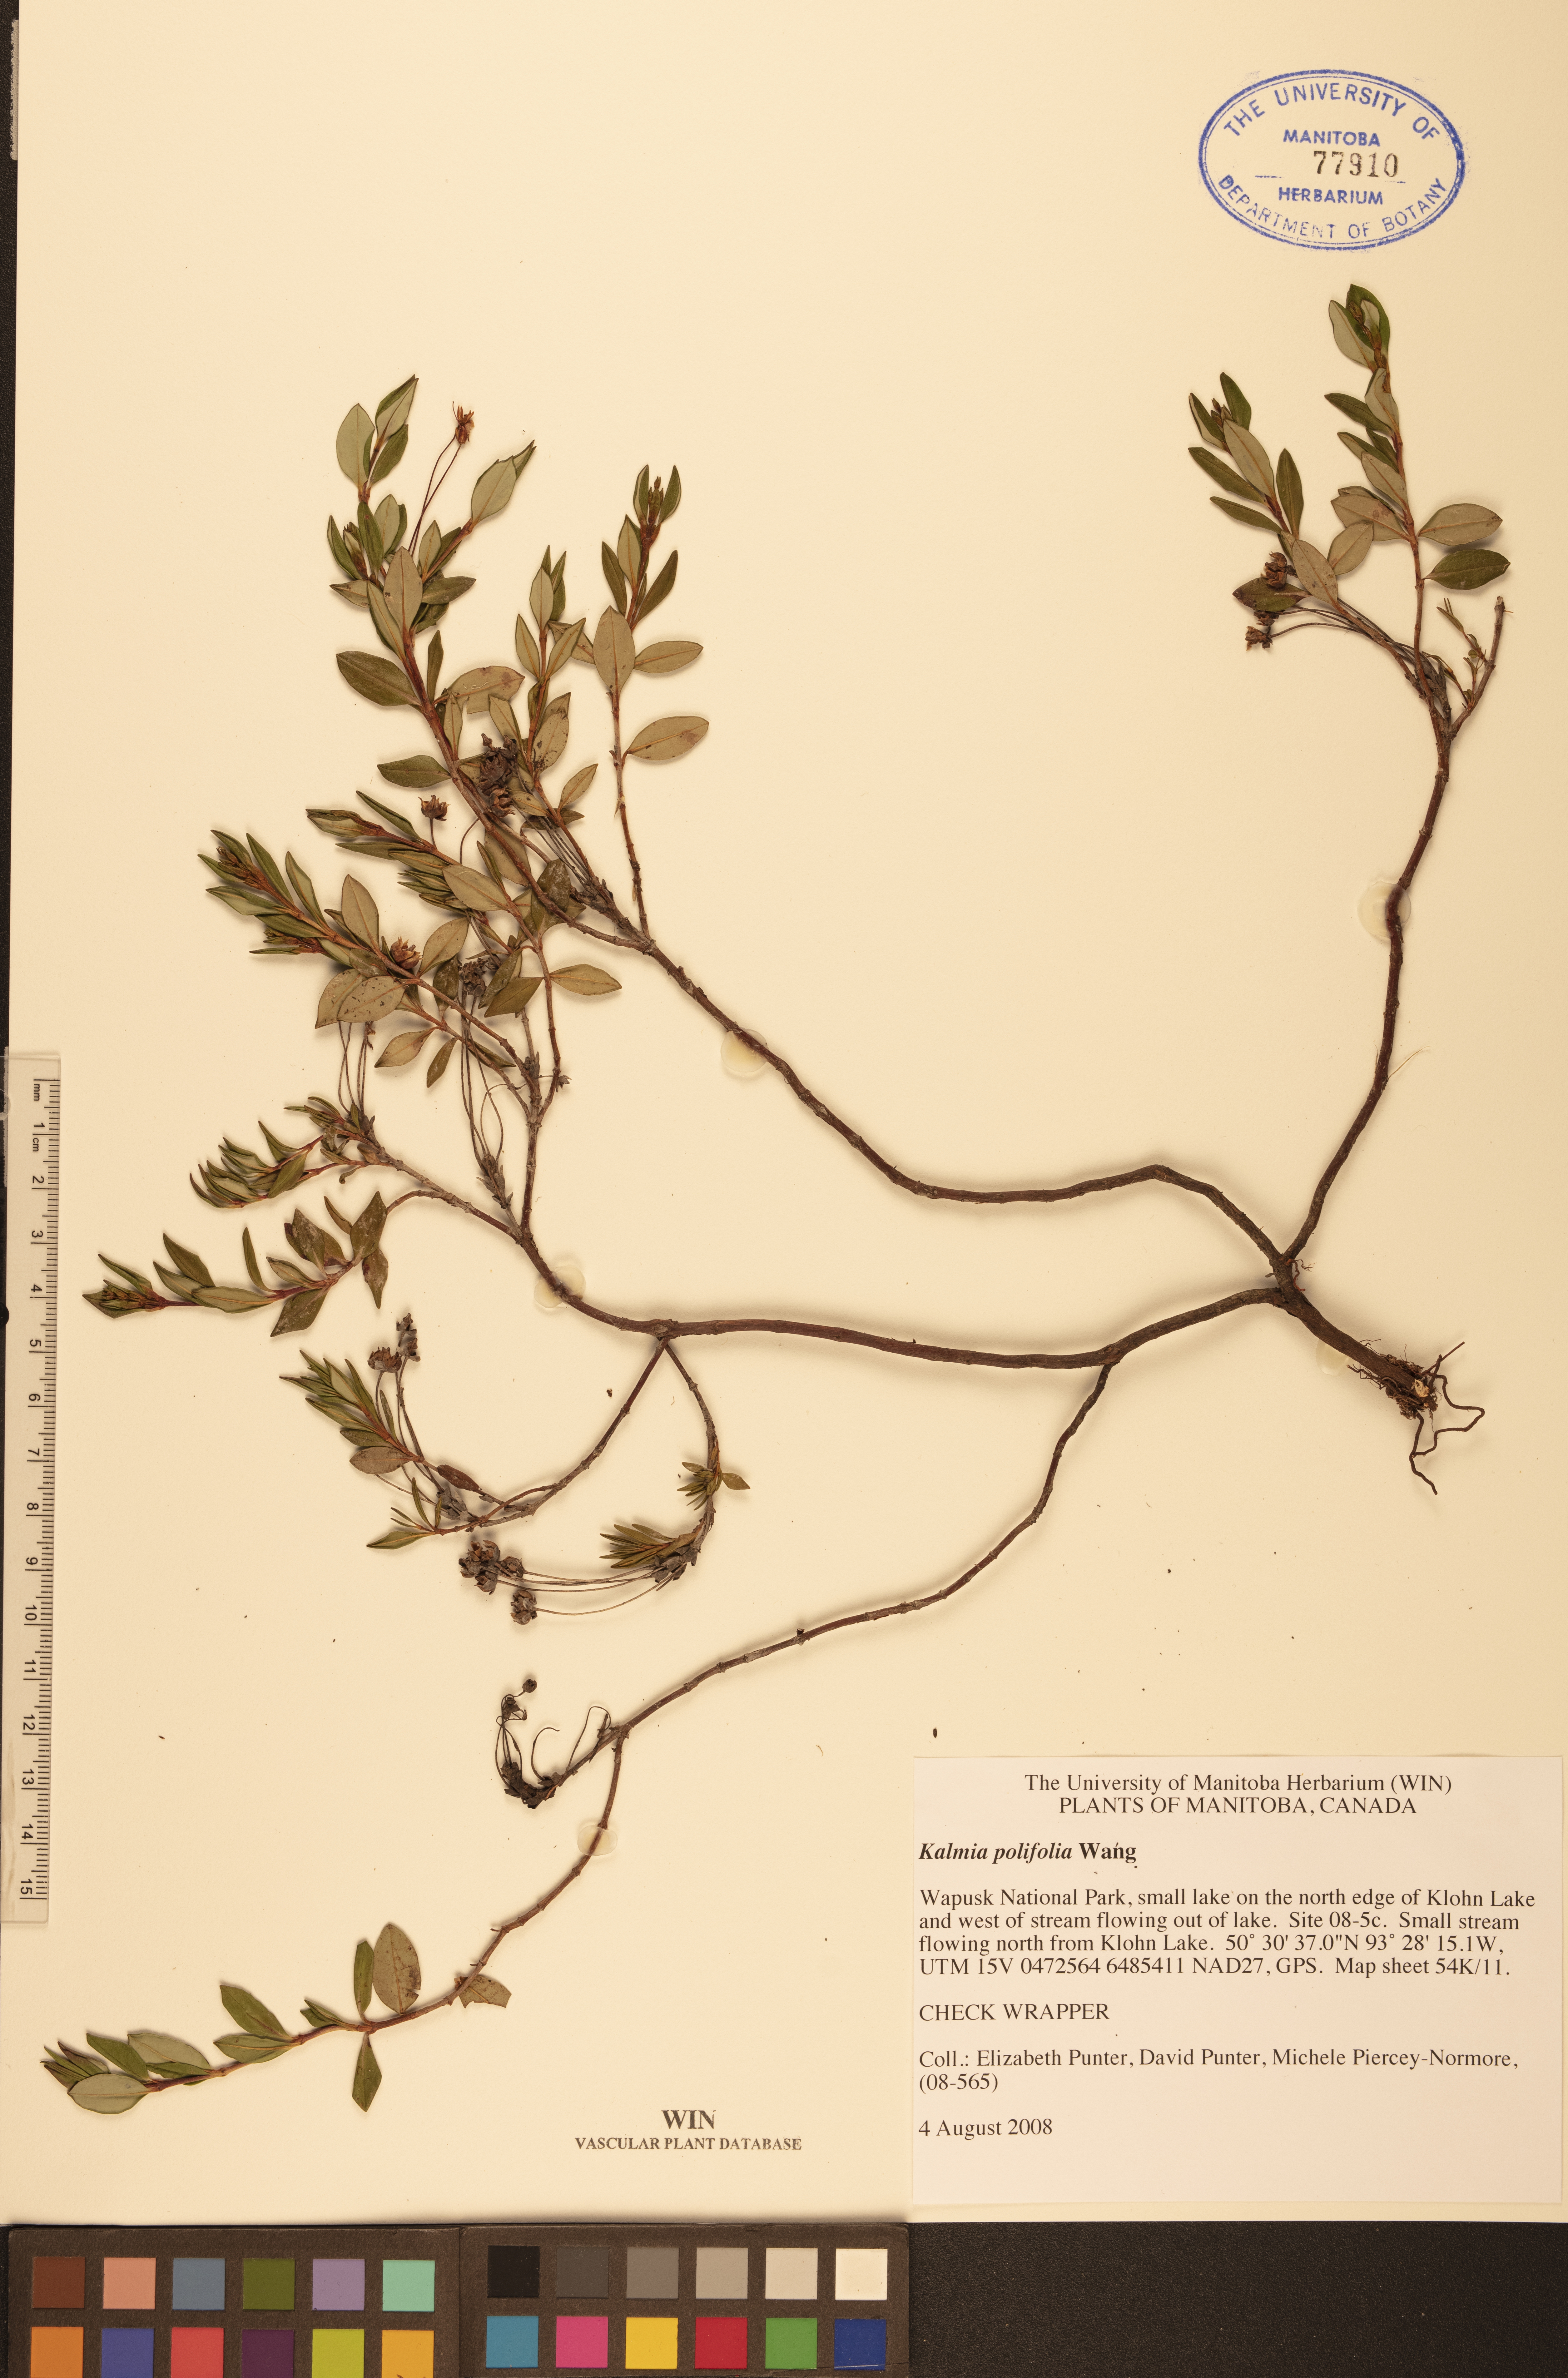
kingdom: Plantae
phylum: Tracheophyta
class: Magnoliopsida
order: Ericales
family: Ericaceae
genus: Kalmia
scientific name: Kalmia polifolia
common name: Bog-laurel
